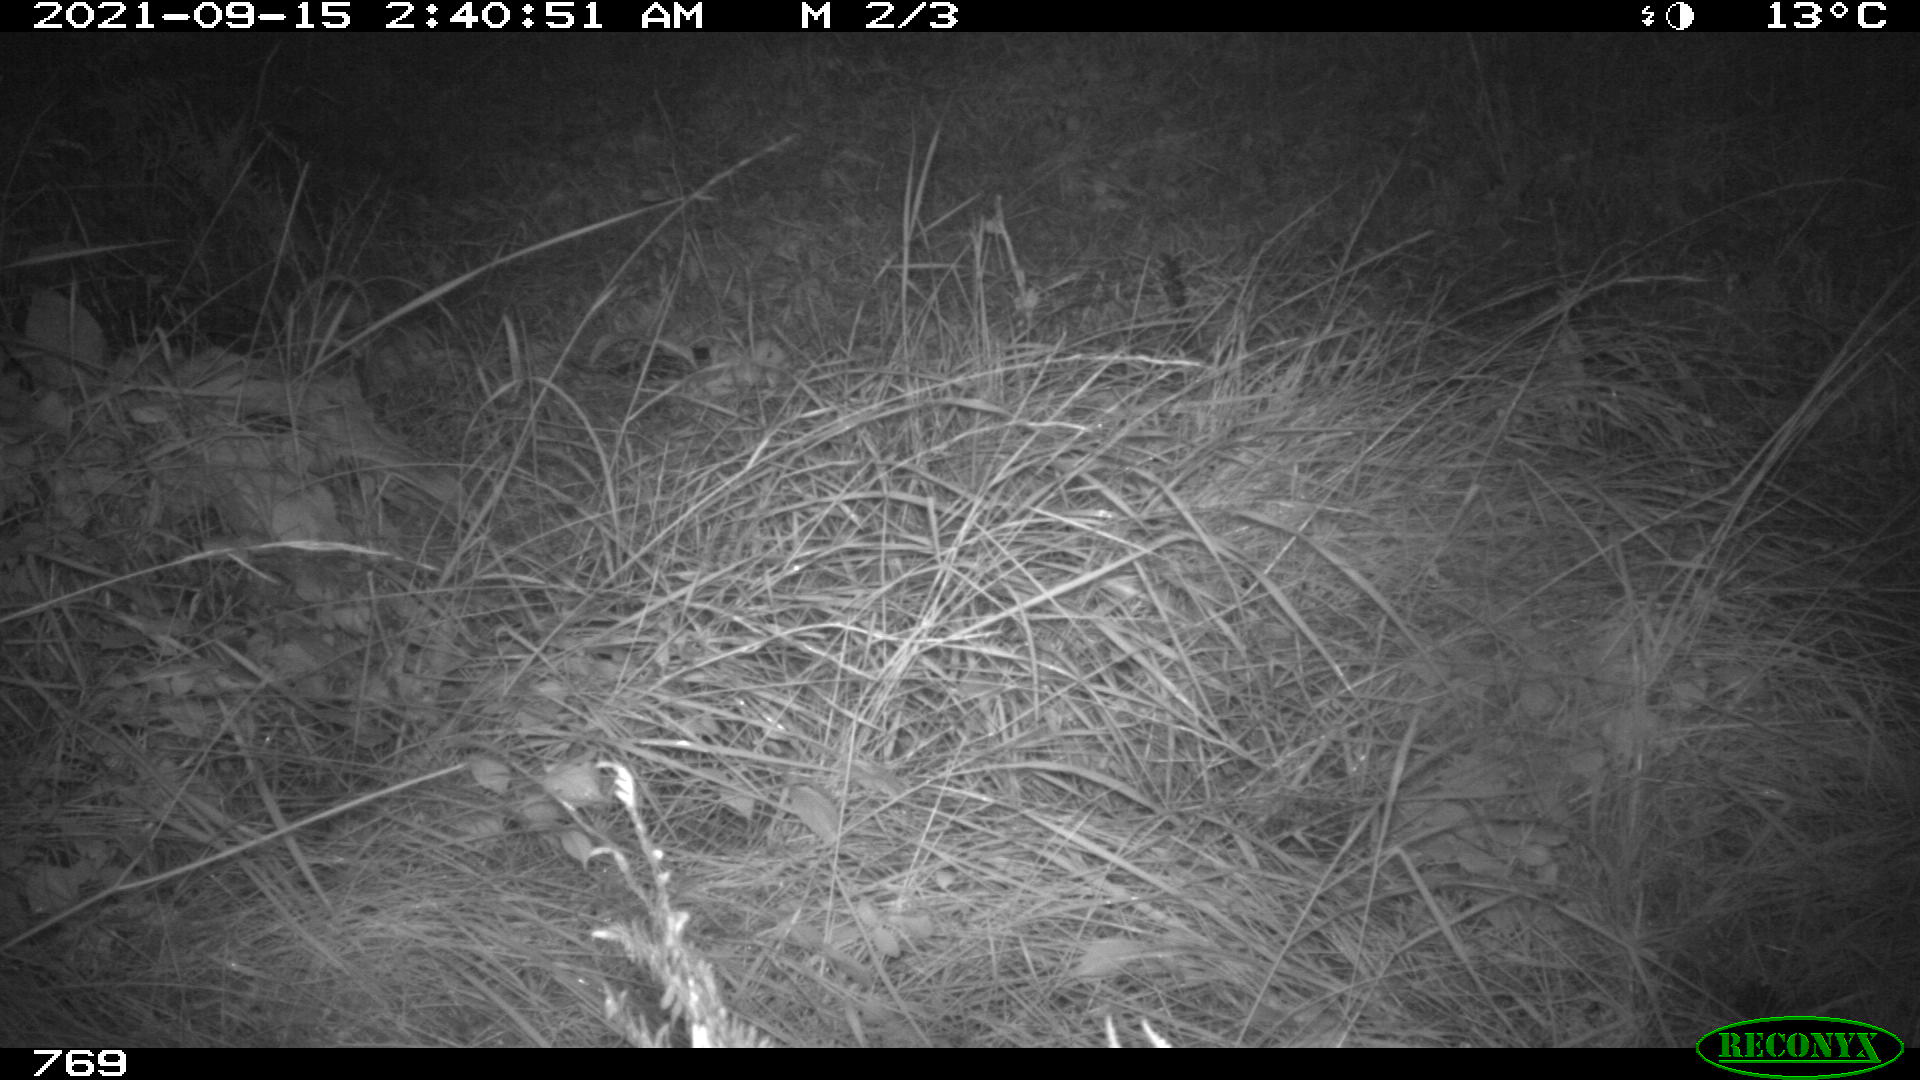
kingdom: Animalia
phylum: Chordata
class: Mammalia
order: Artiodactyla
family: Cervidae
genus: Capreolus
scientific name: Capreolus capreolus
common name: Western roe deer
